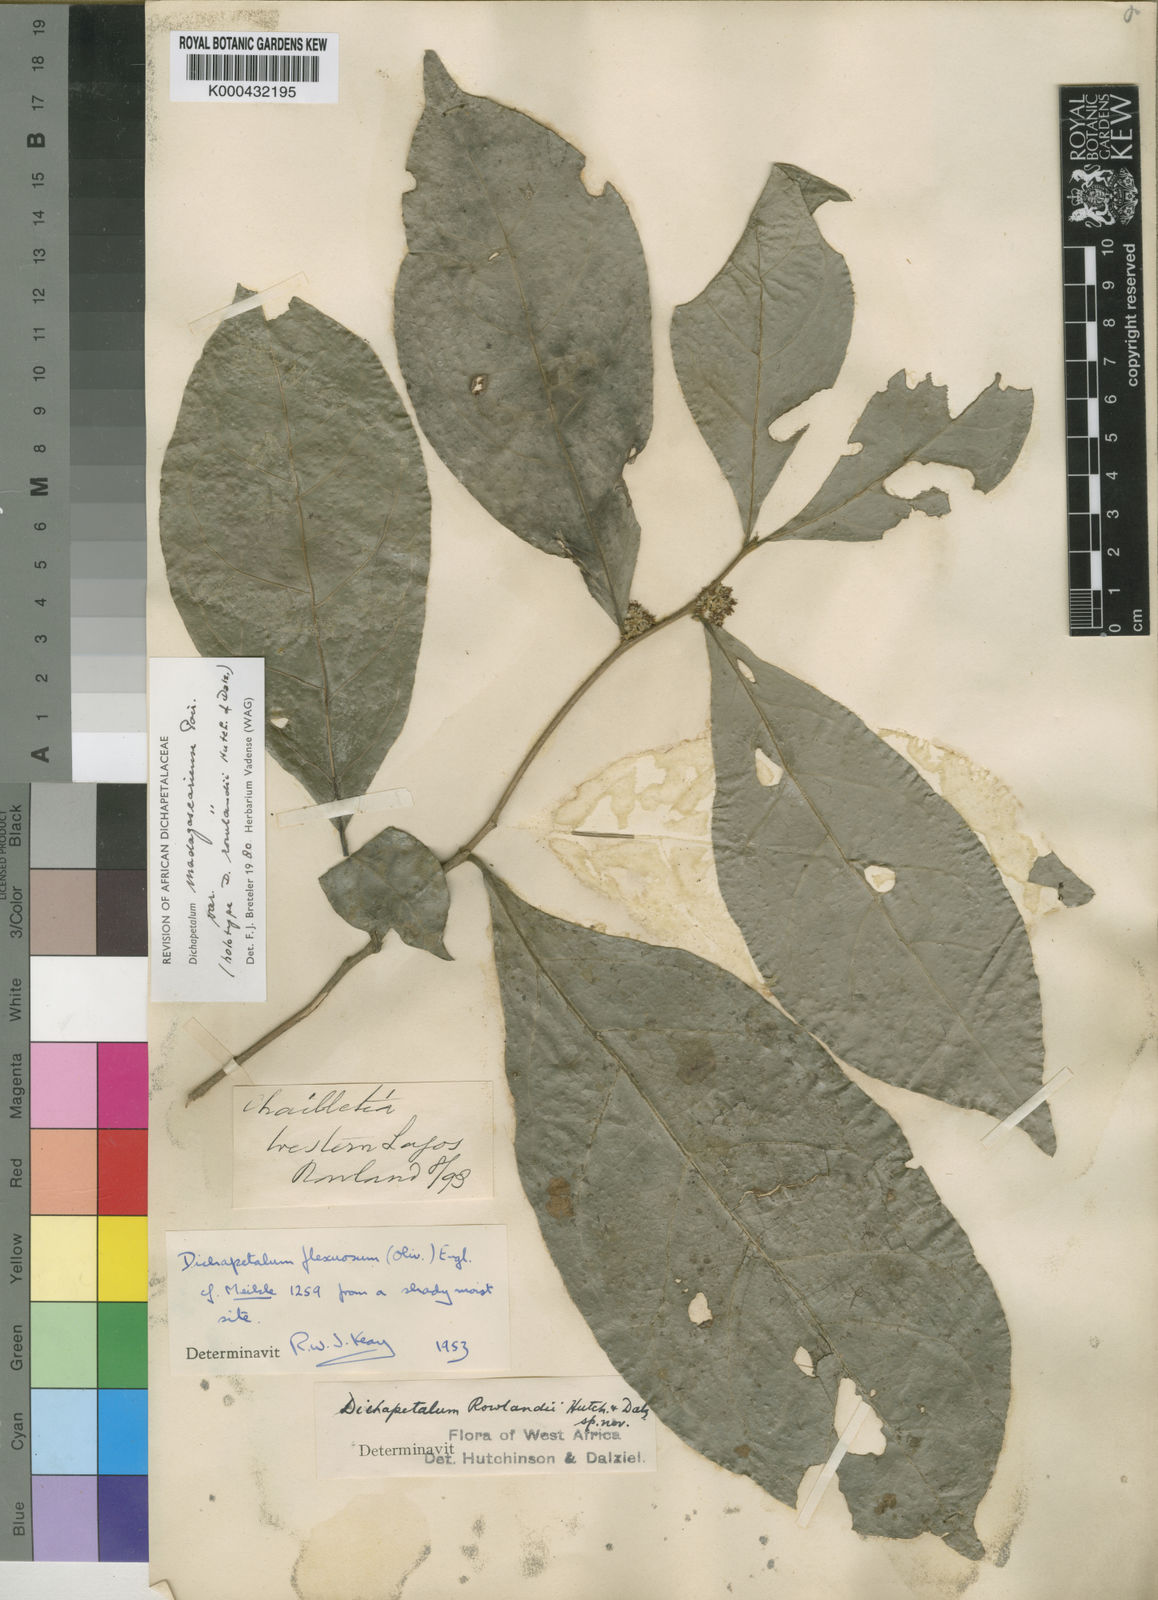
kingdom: Plantae
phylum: Tracheophyta
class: Magnoliopsida
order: Malpighiales
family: Dichapetalaceae
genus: Dichapetalum
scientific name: Dichapetalum madagascariense
